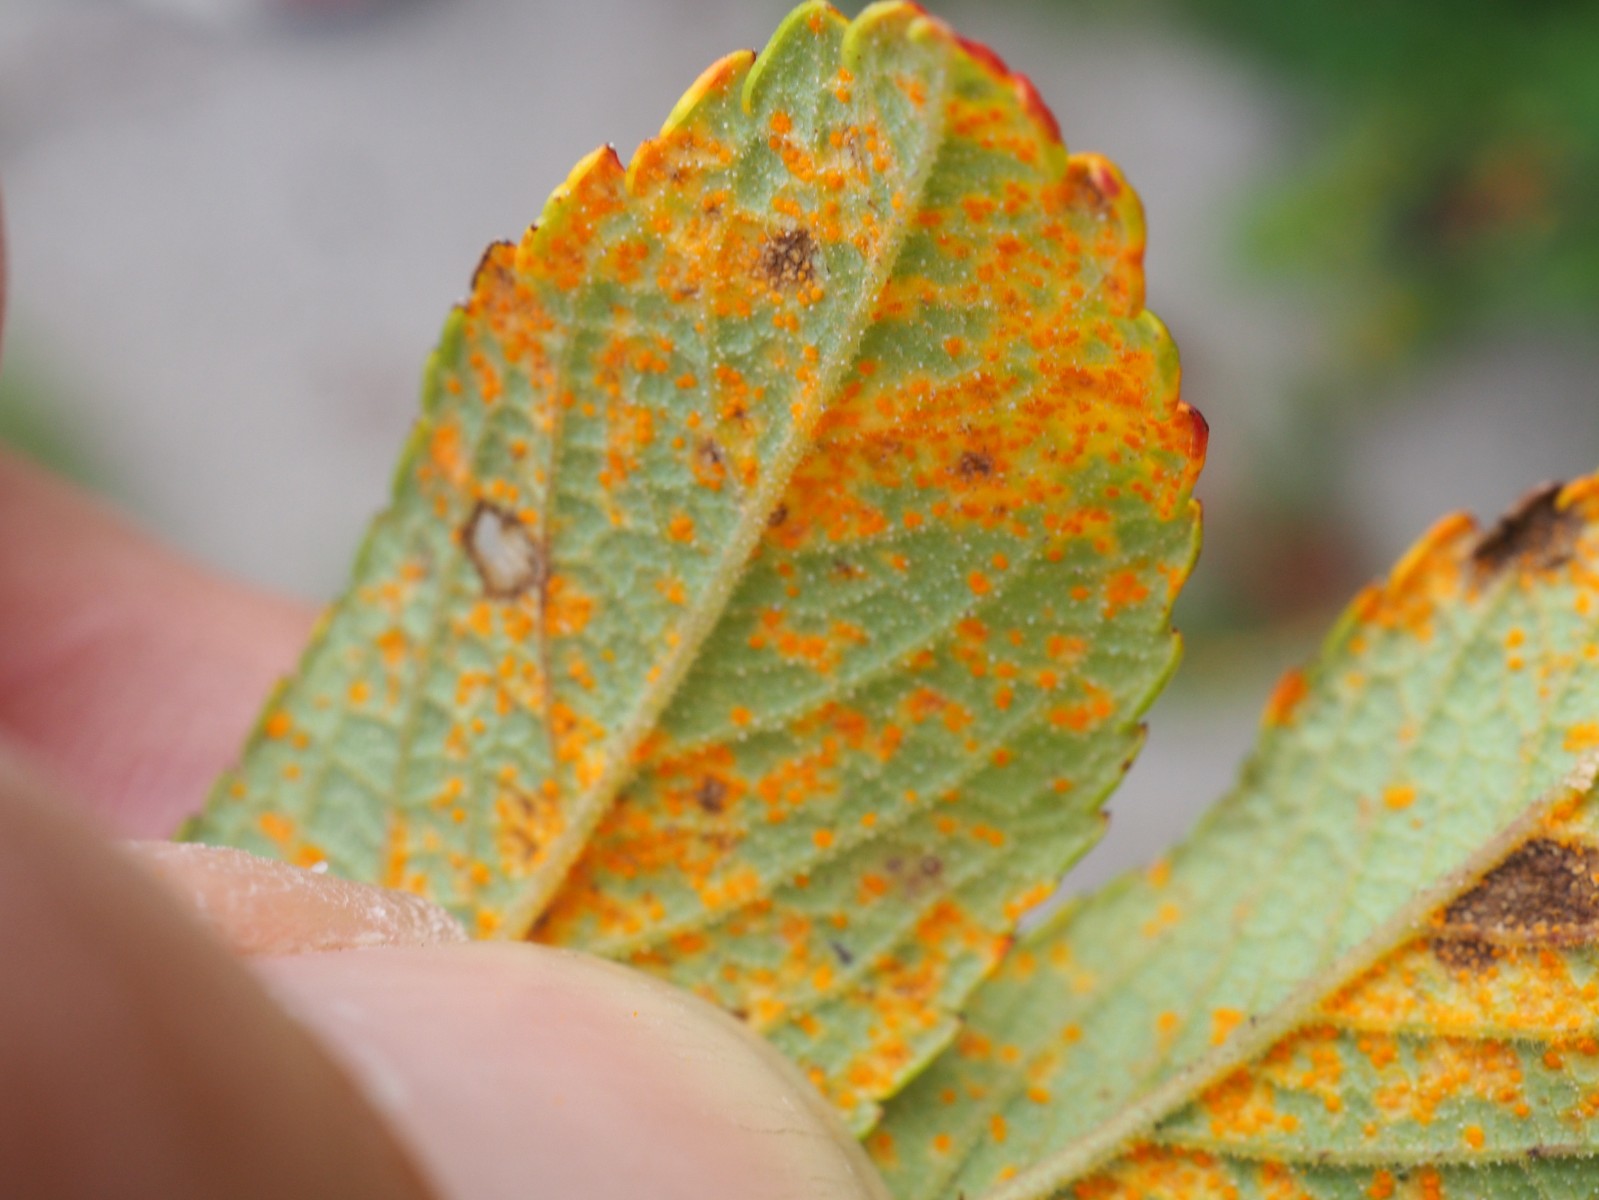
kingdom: Fungi
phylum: Basidiomycota
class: Pucciniomycetes
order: Pucciniales
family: Phragmidiaceae
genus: Phragmidium
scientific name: Phragmidium tuberculatum
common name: Rose rust
